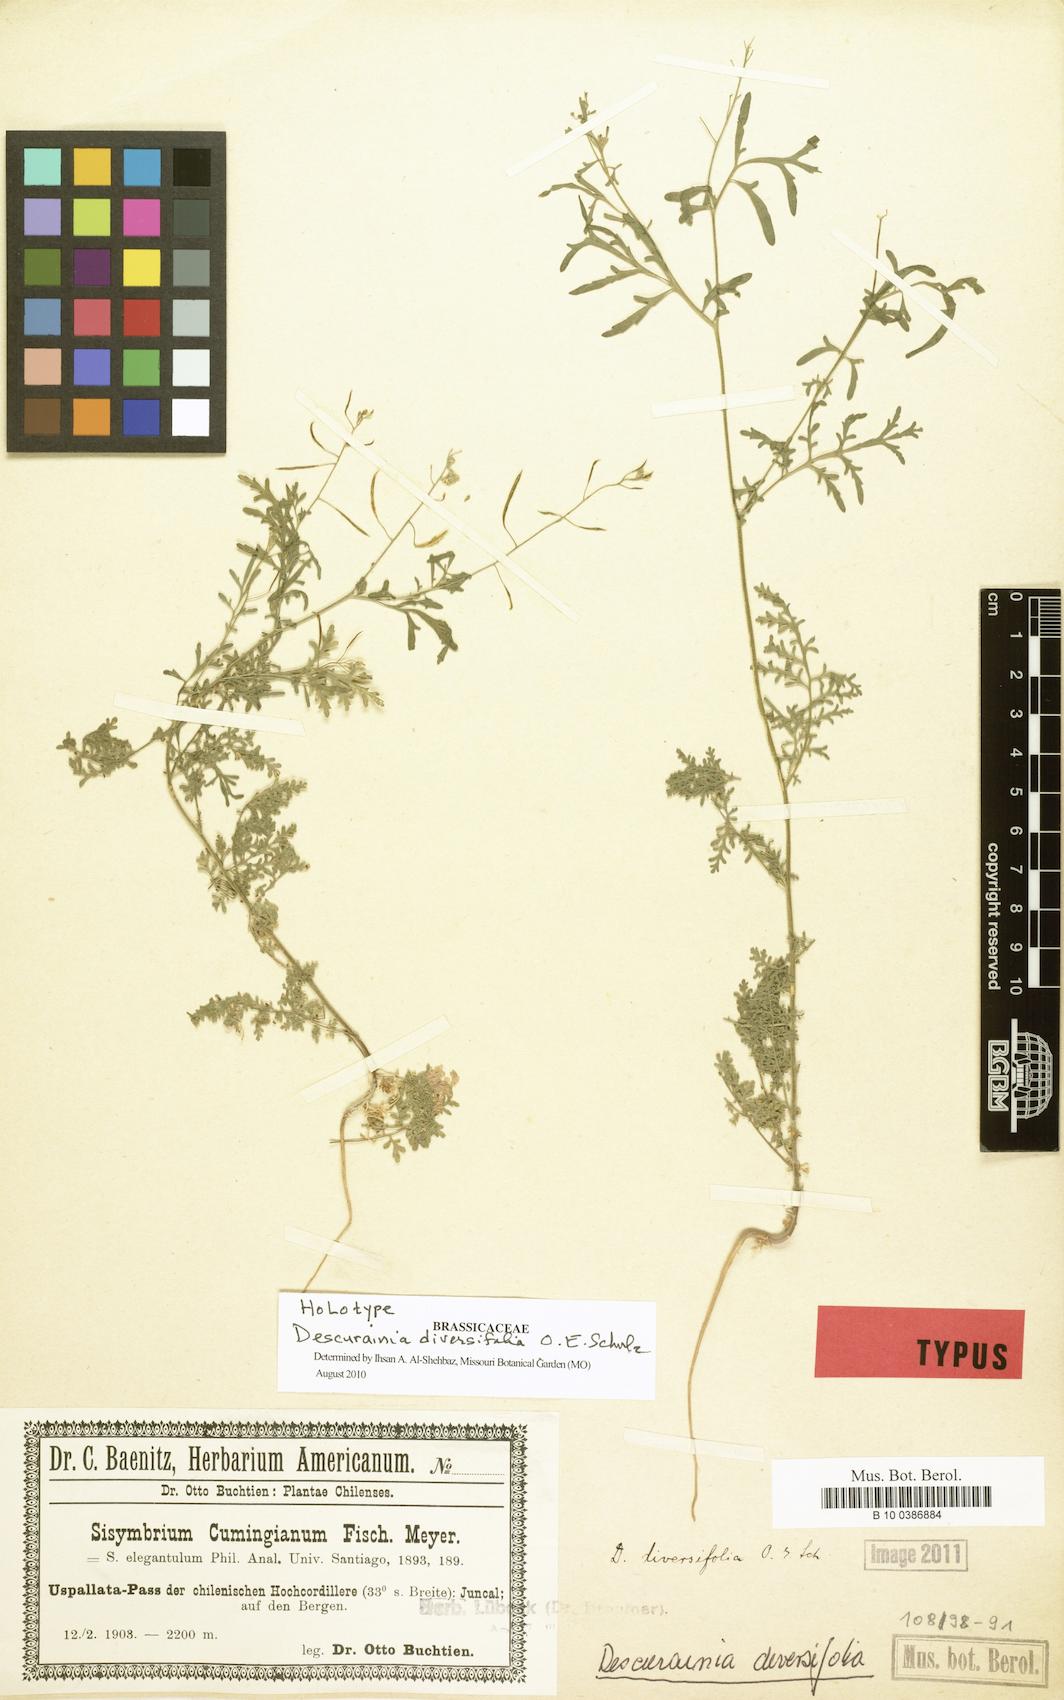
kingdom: Plantae
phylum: Tracheophyta
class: Magnoliopsida
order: Brassicales
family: Brassicaceae
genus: Descurainia
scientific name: Descurainia nuttallii
